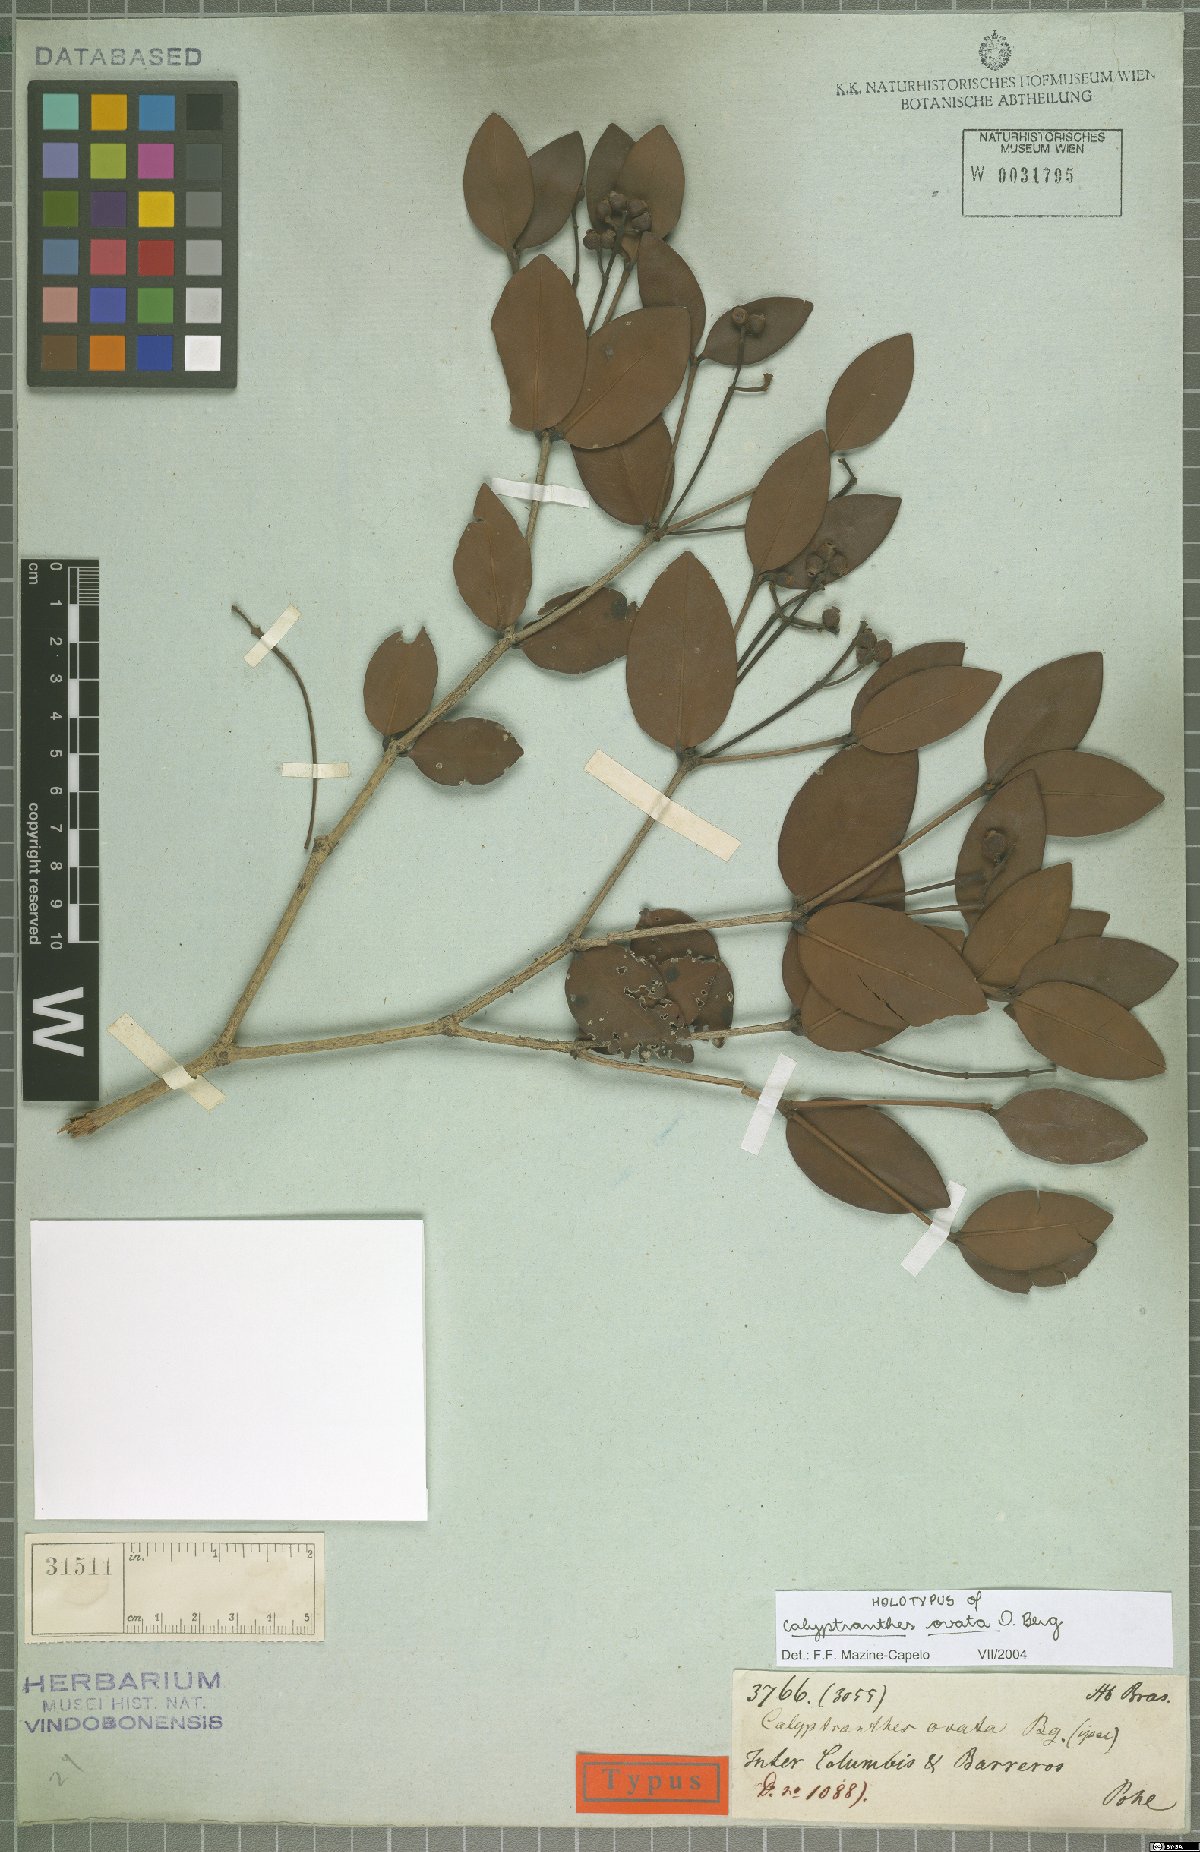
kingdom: Plantae
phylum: Tracheophyta
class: Magnoliopsida
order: Myrtales
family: Myrtaceae
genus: Calyptranthes
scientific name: Calyptranthes ovata
